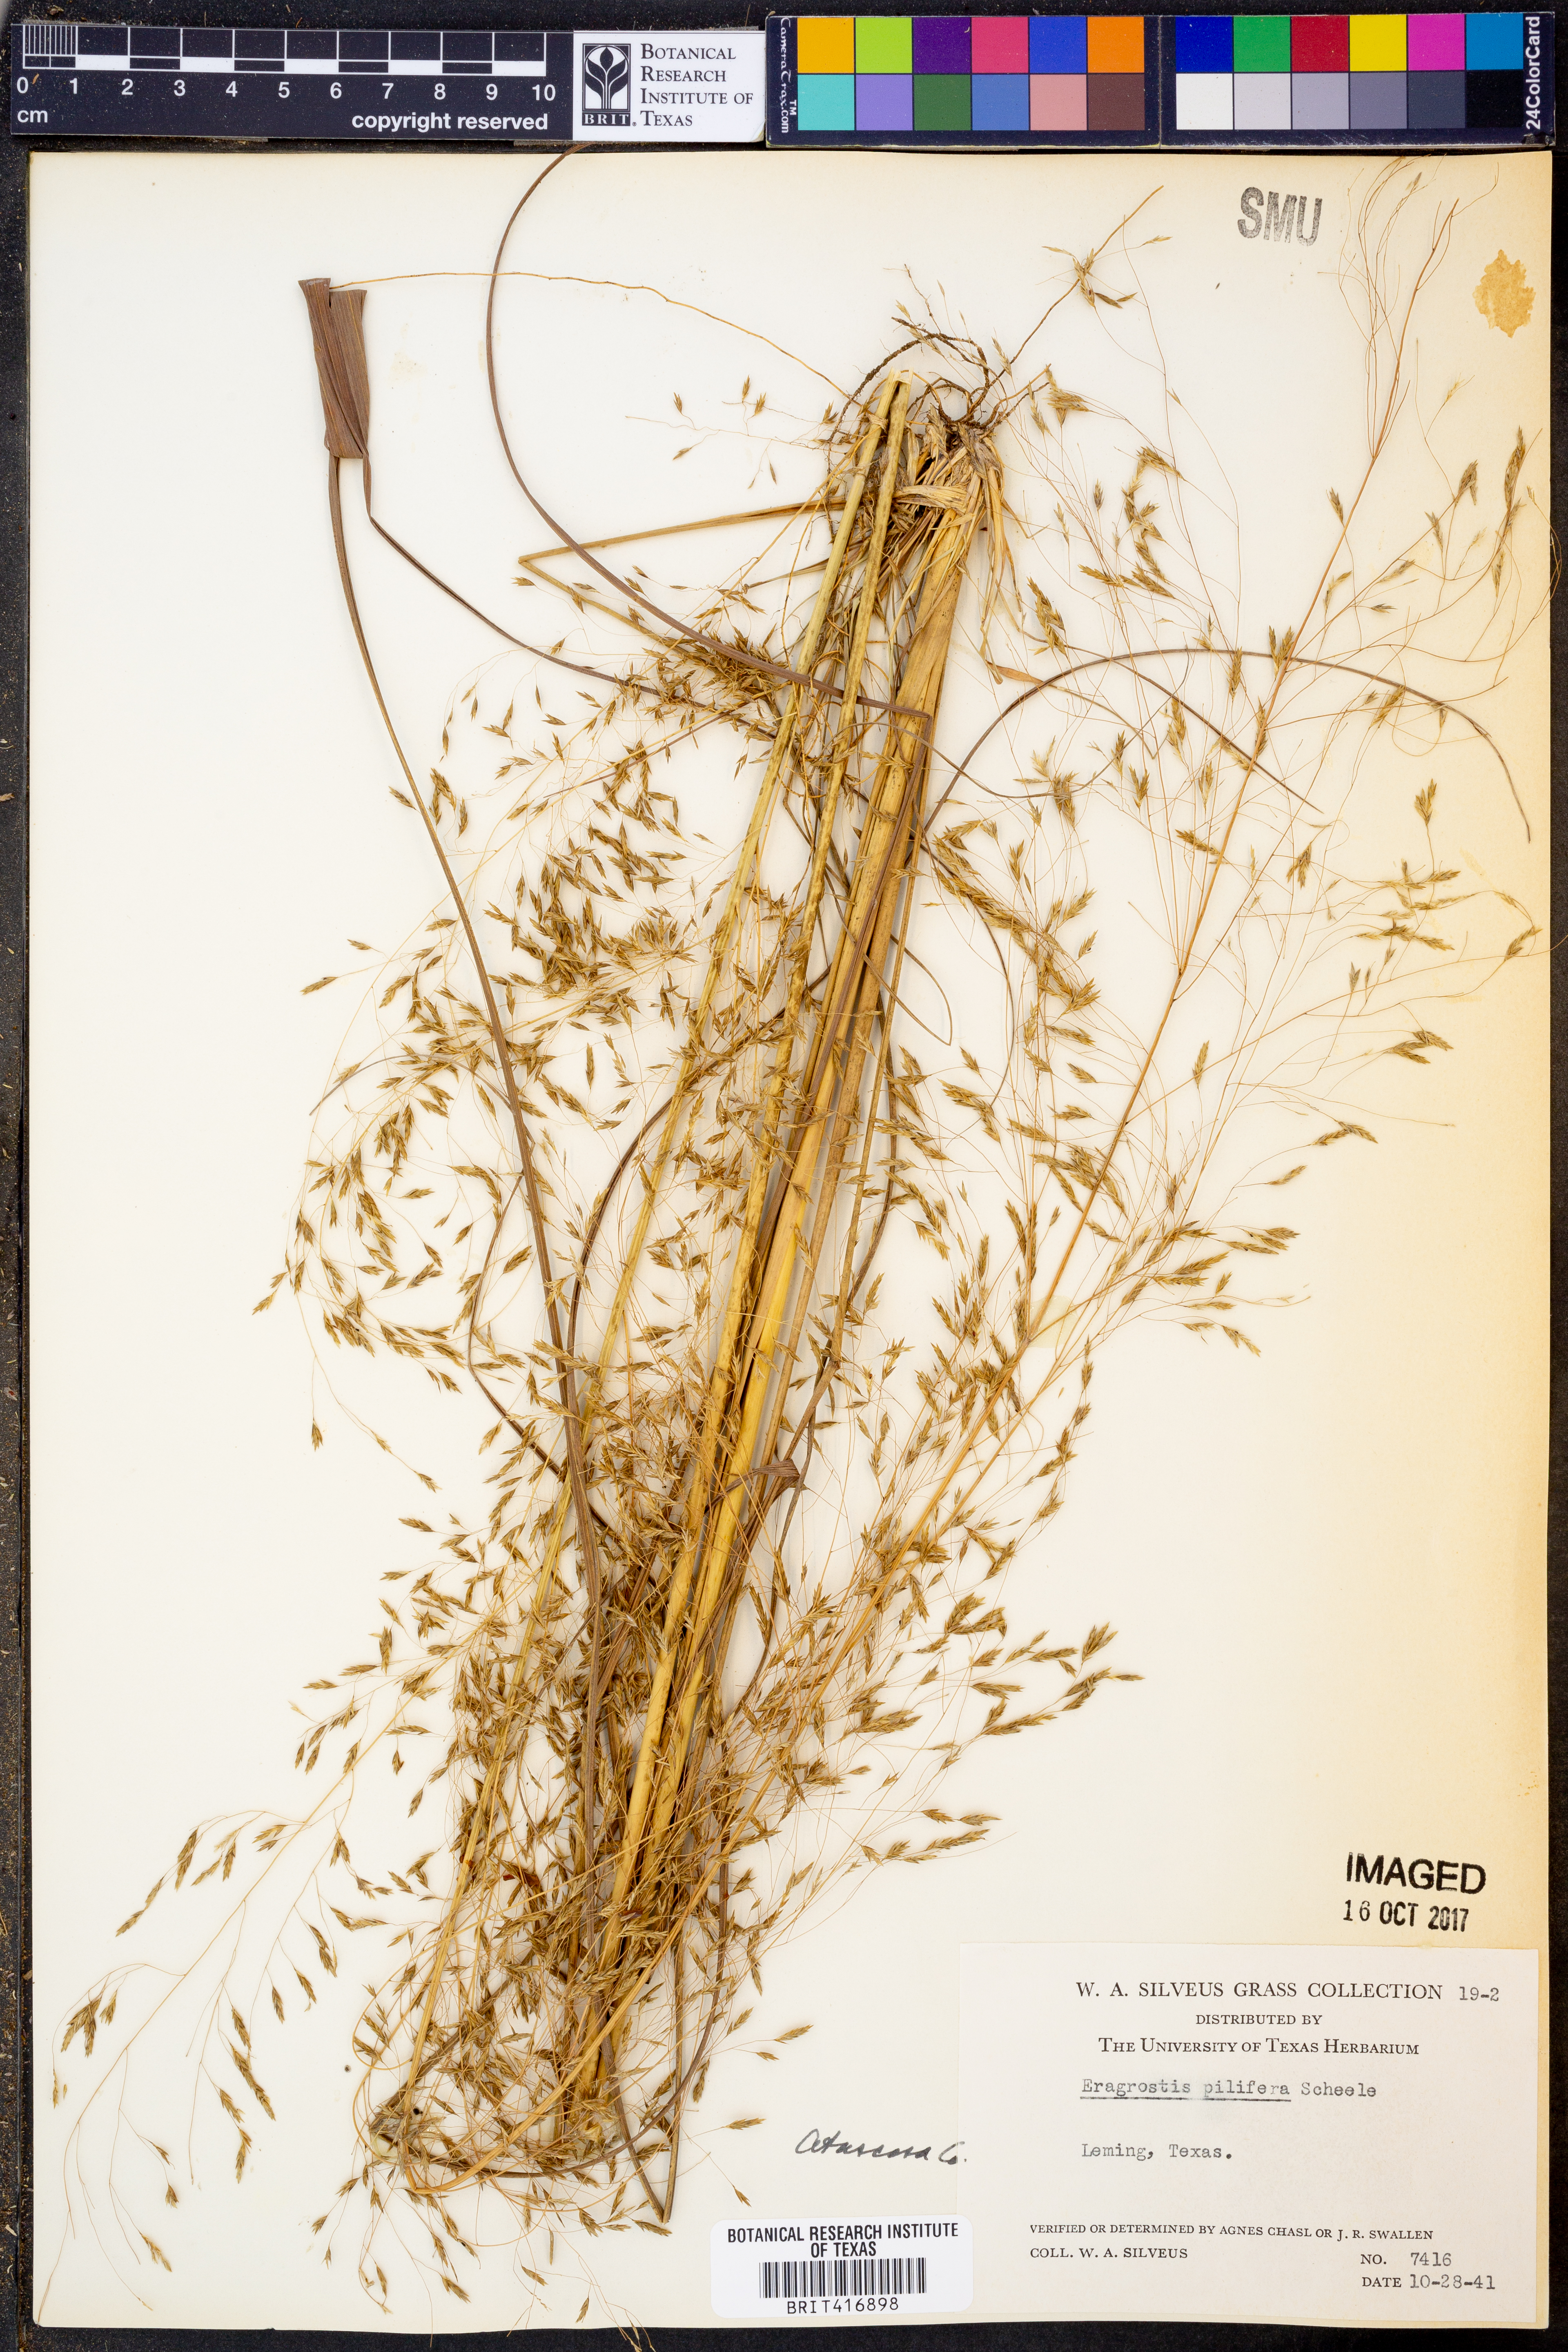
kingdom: Plantae
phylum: Tracheophyta
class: Liliopsida
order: Poales
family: Poaceae
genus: Eragrostis
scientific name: Eragrostis trichodes
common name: Sand love grass
